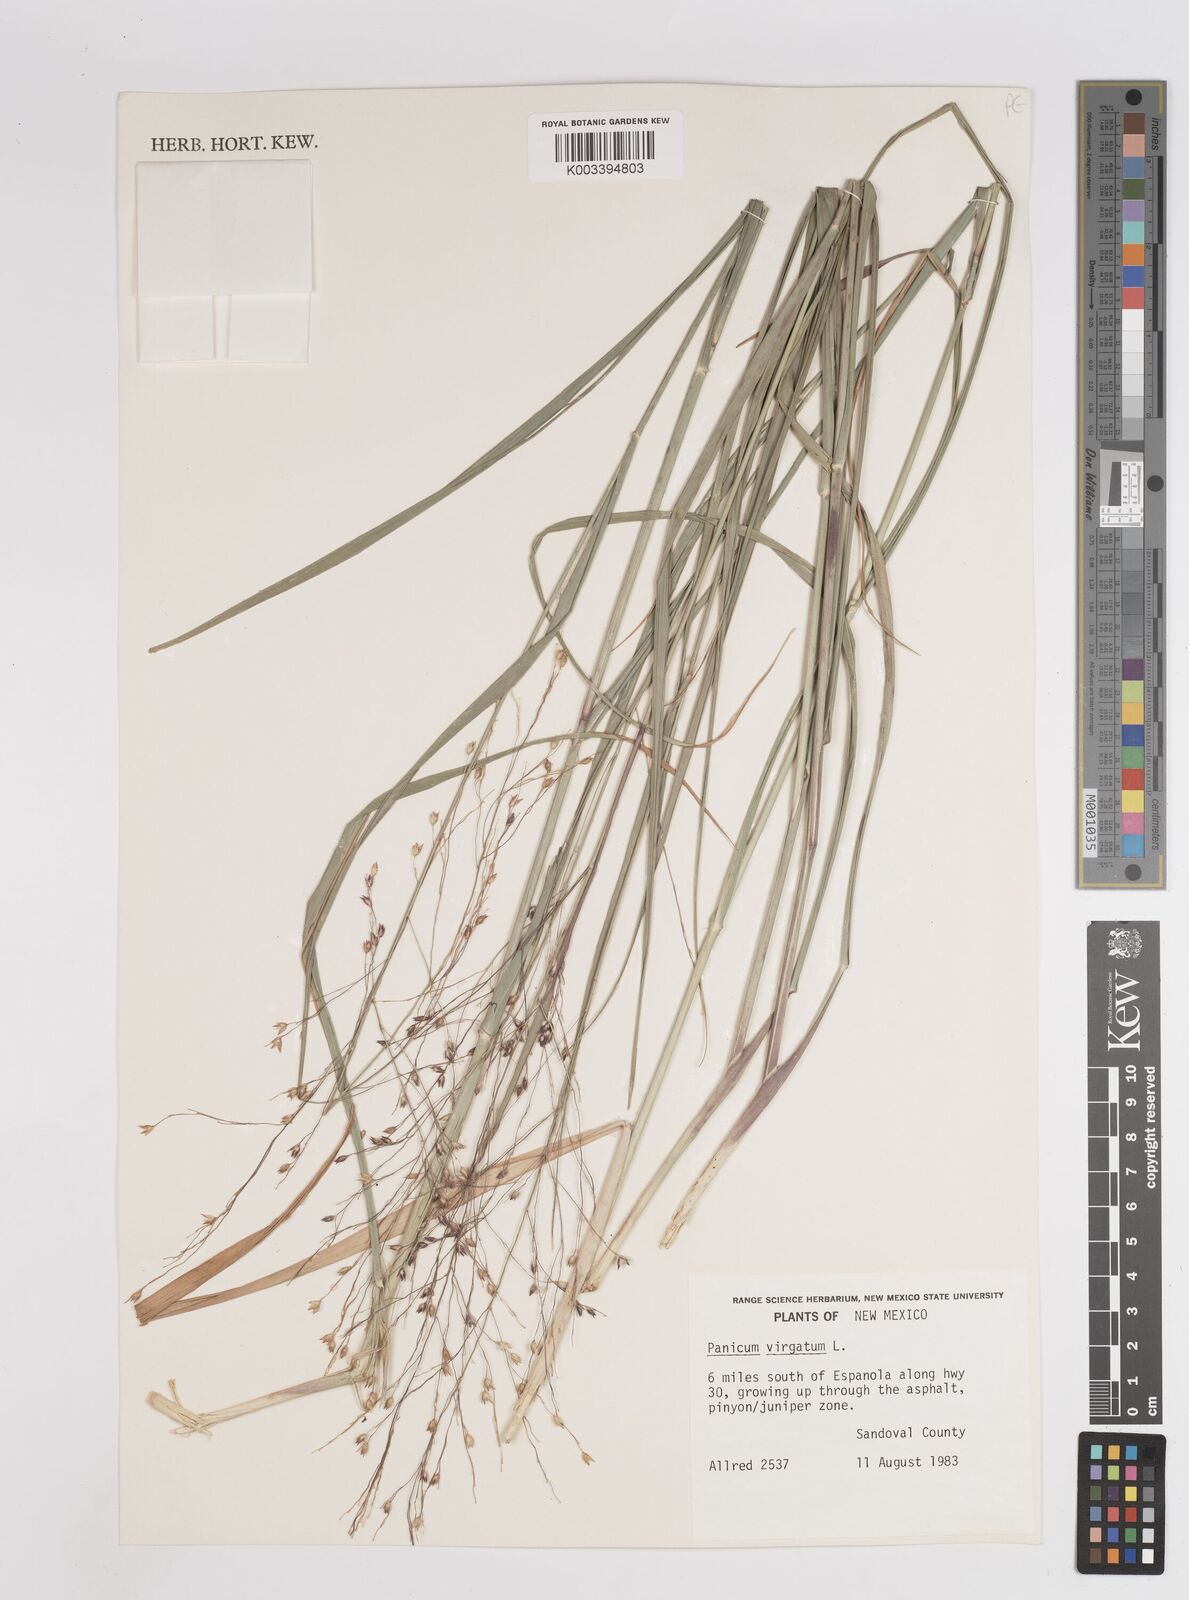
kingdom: Plantae
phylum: Tracheophyta
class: Liliopsida
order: Poales
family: Poaceae
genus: Panicum
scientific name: Panicum virgatum
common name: Switchgrass
